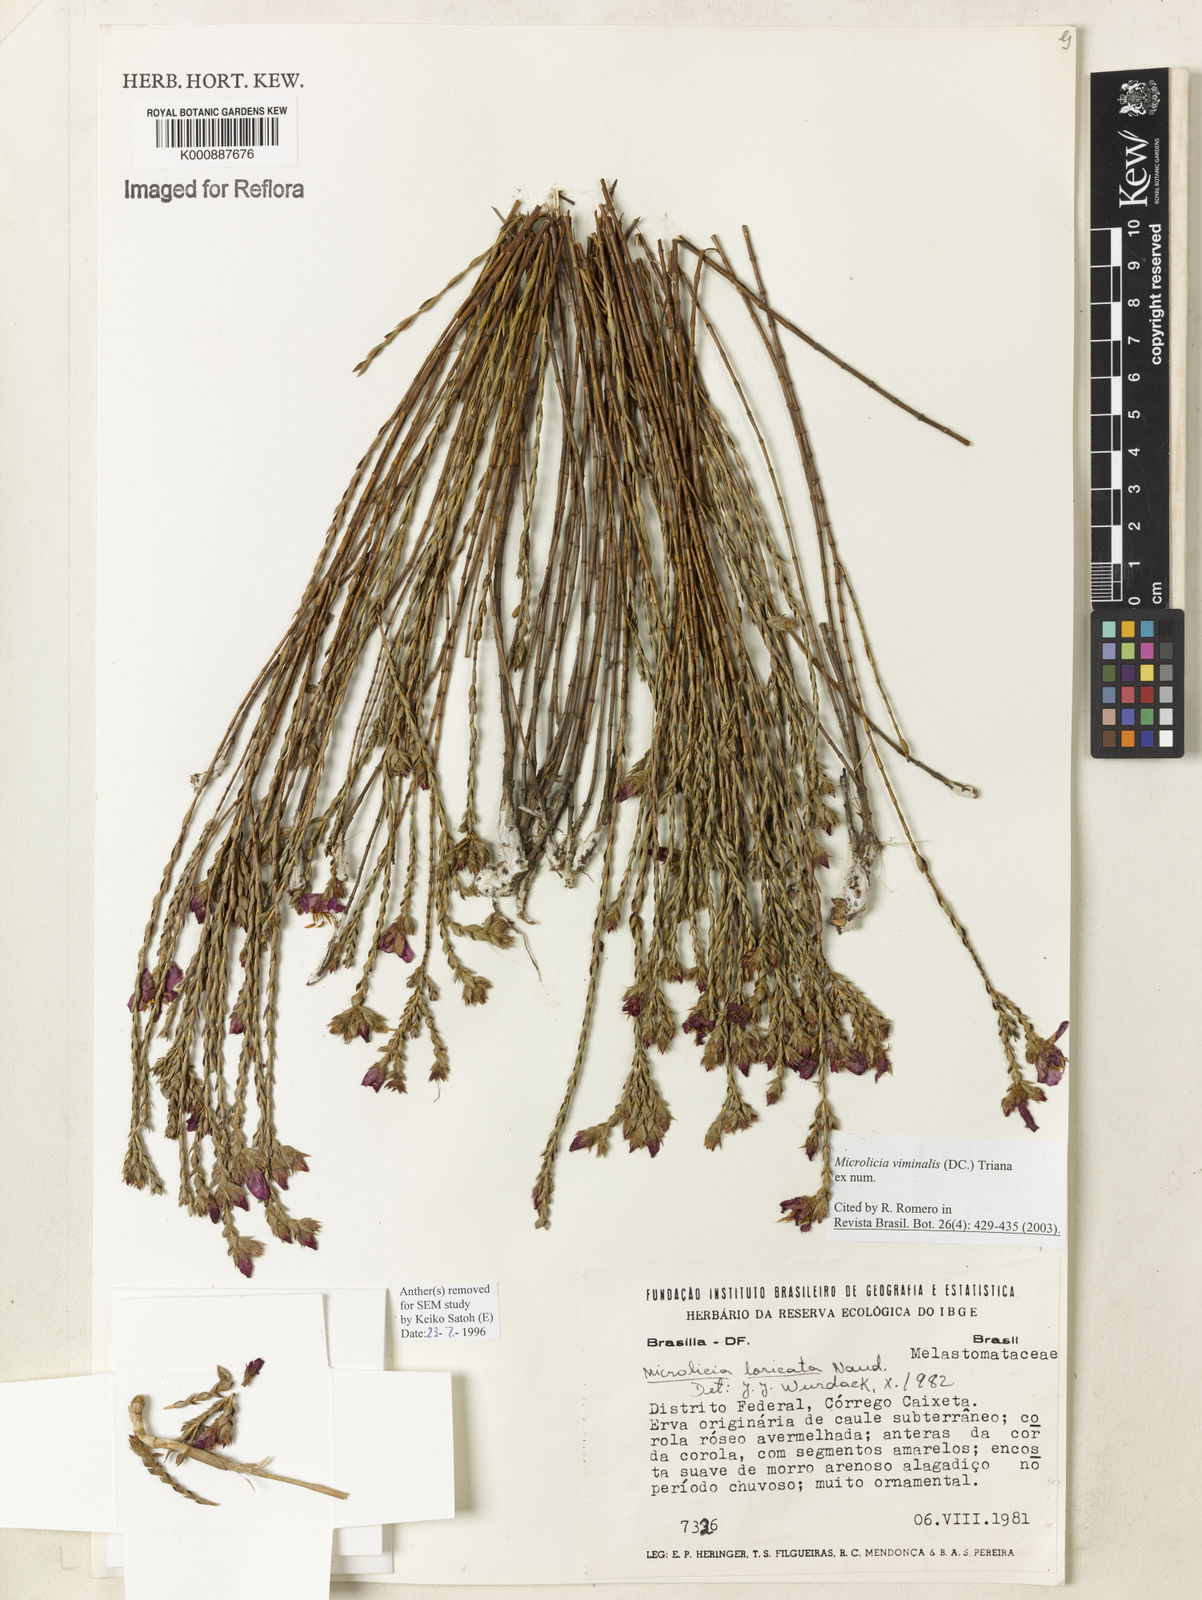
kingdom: Plantae
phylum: Tracheophyta
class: Magnoliopsida
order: Myrtales
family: Melastomataceae
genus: Microlicia
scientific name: Microlicia viminalis
